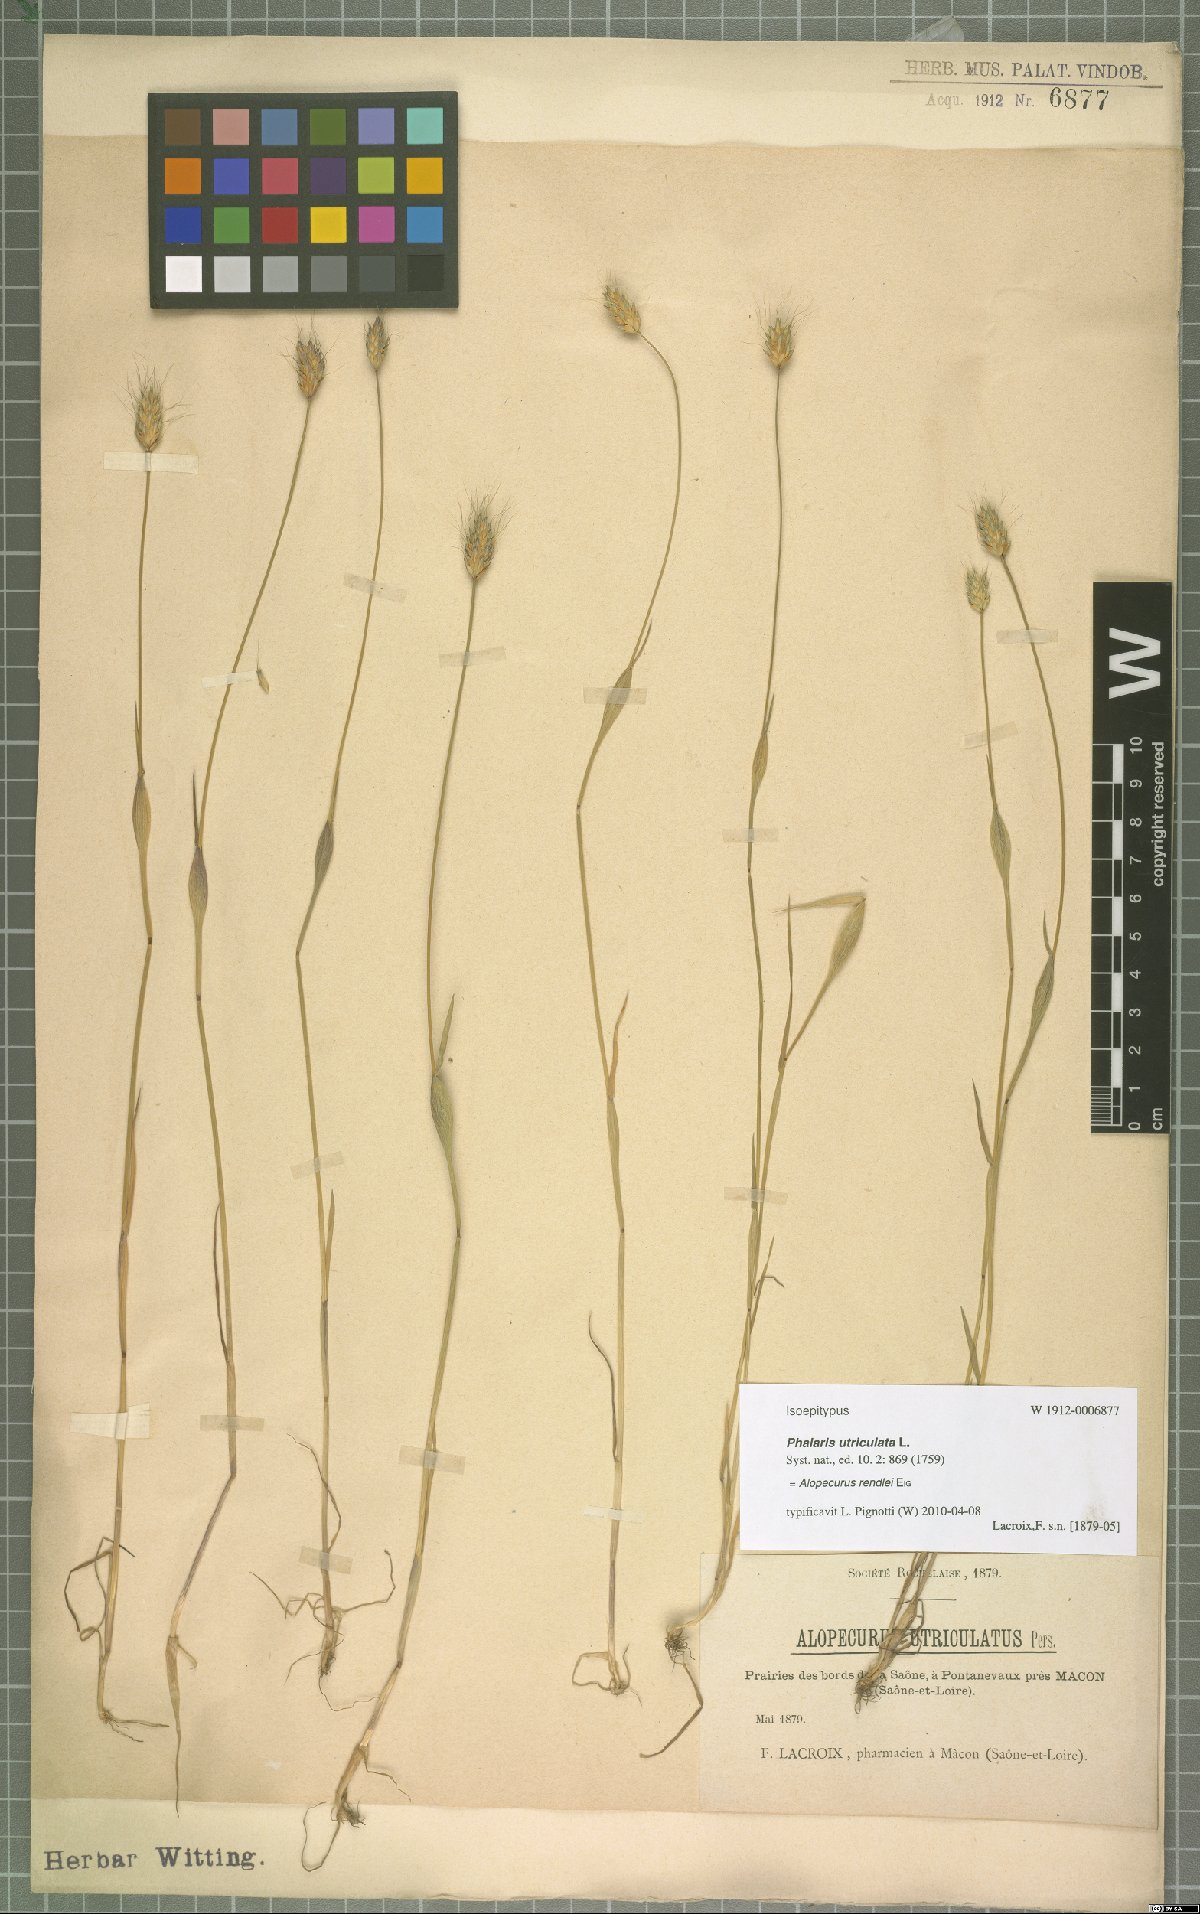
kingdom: Plantae
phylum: Tracheophyta
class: Liliopsida
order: Poales
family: Poaceae
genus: Alopecurus
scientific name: Alopecurus rendlei
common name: Rendle's meadow foxtail
